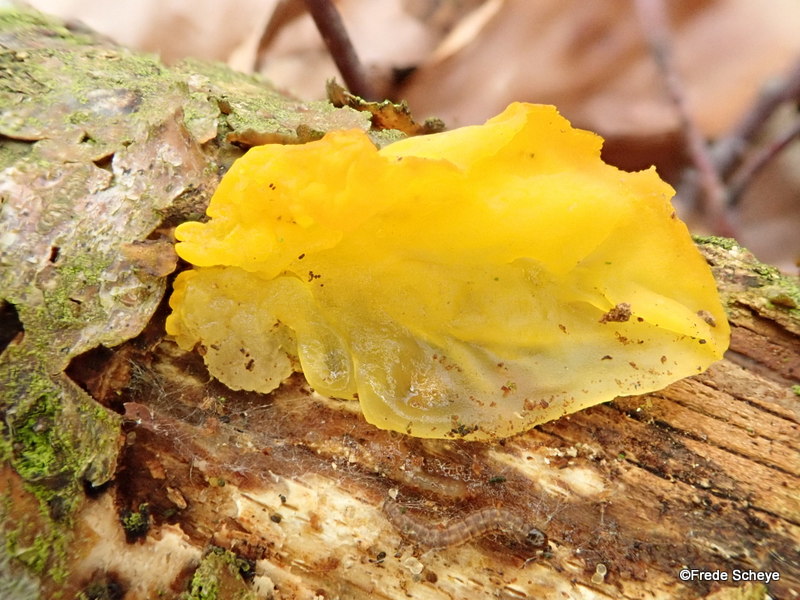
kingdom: Fungi
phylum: Basidiomycota
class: Tremellomycetes
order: Tremellales
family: Tremellaceae
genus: Tremella
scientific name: Tremella mesenterica
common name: gul bævresvamp
